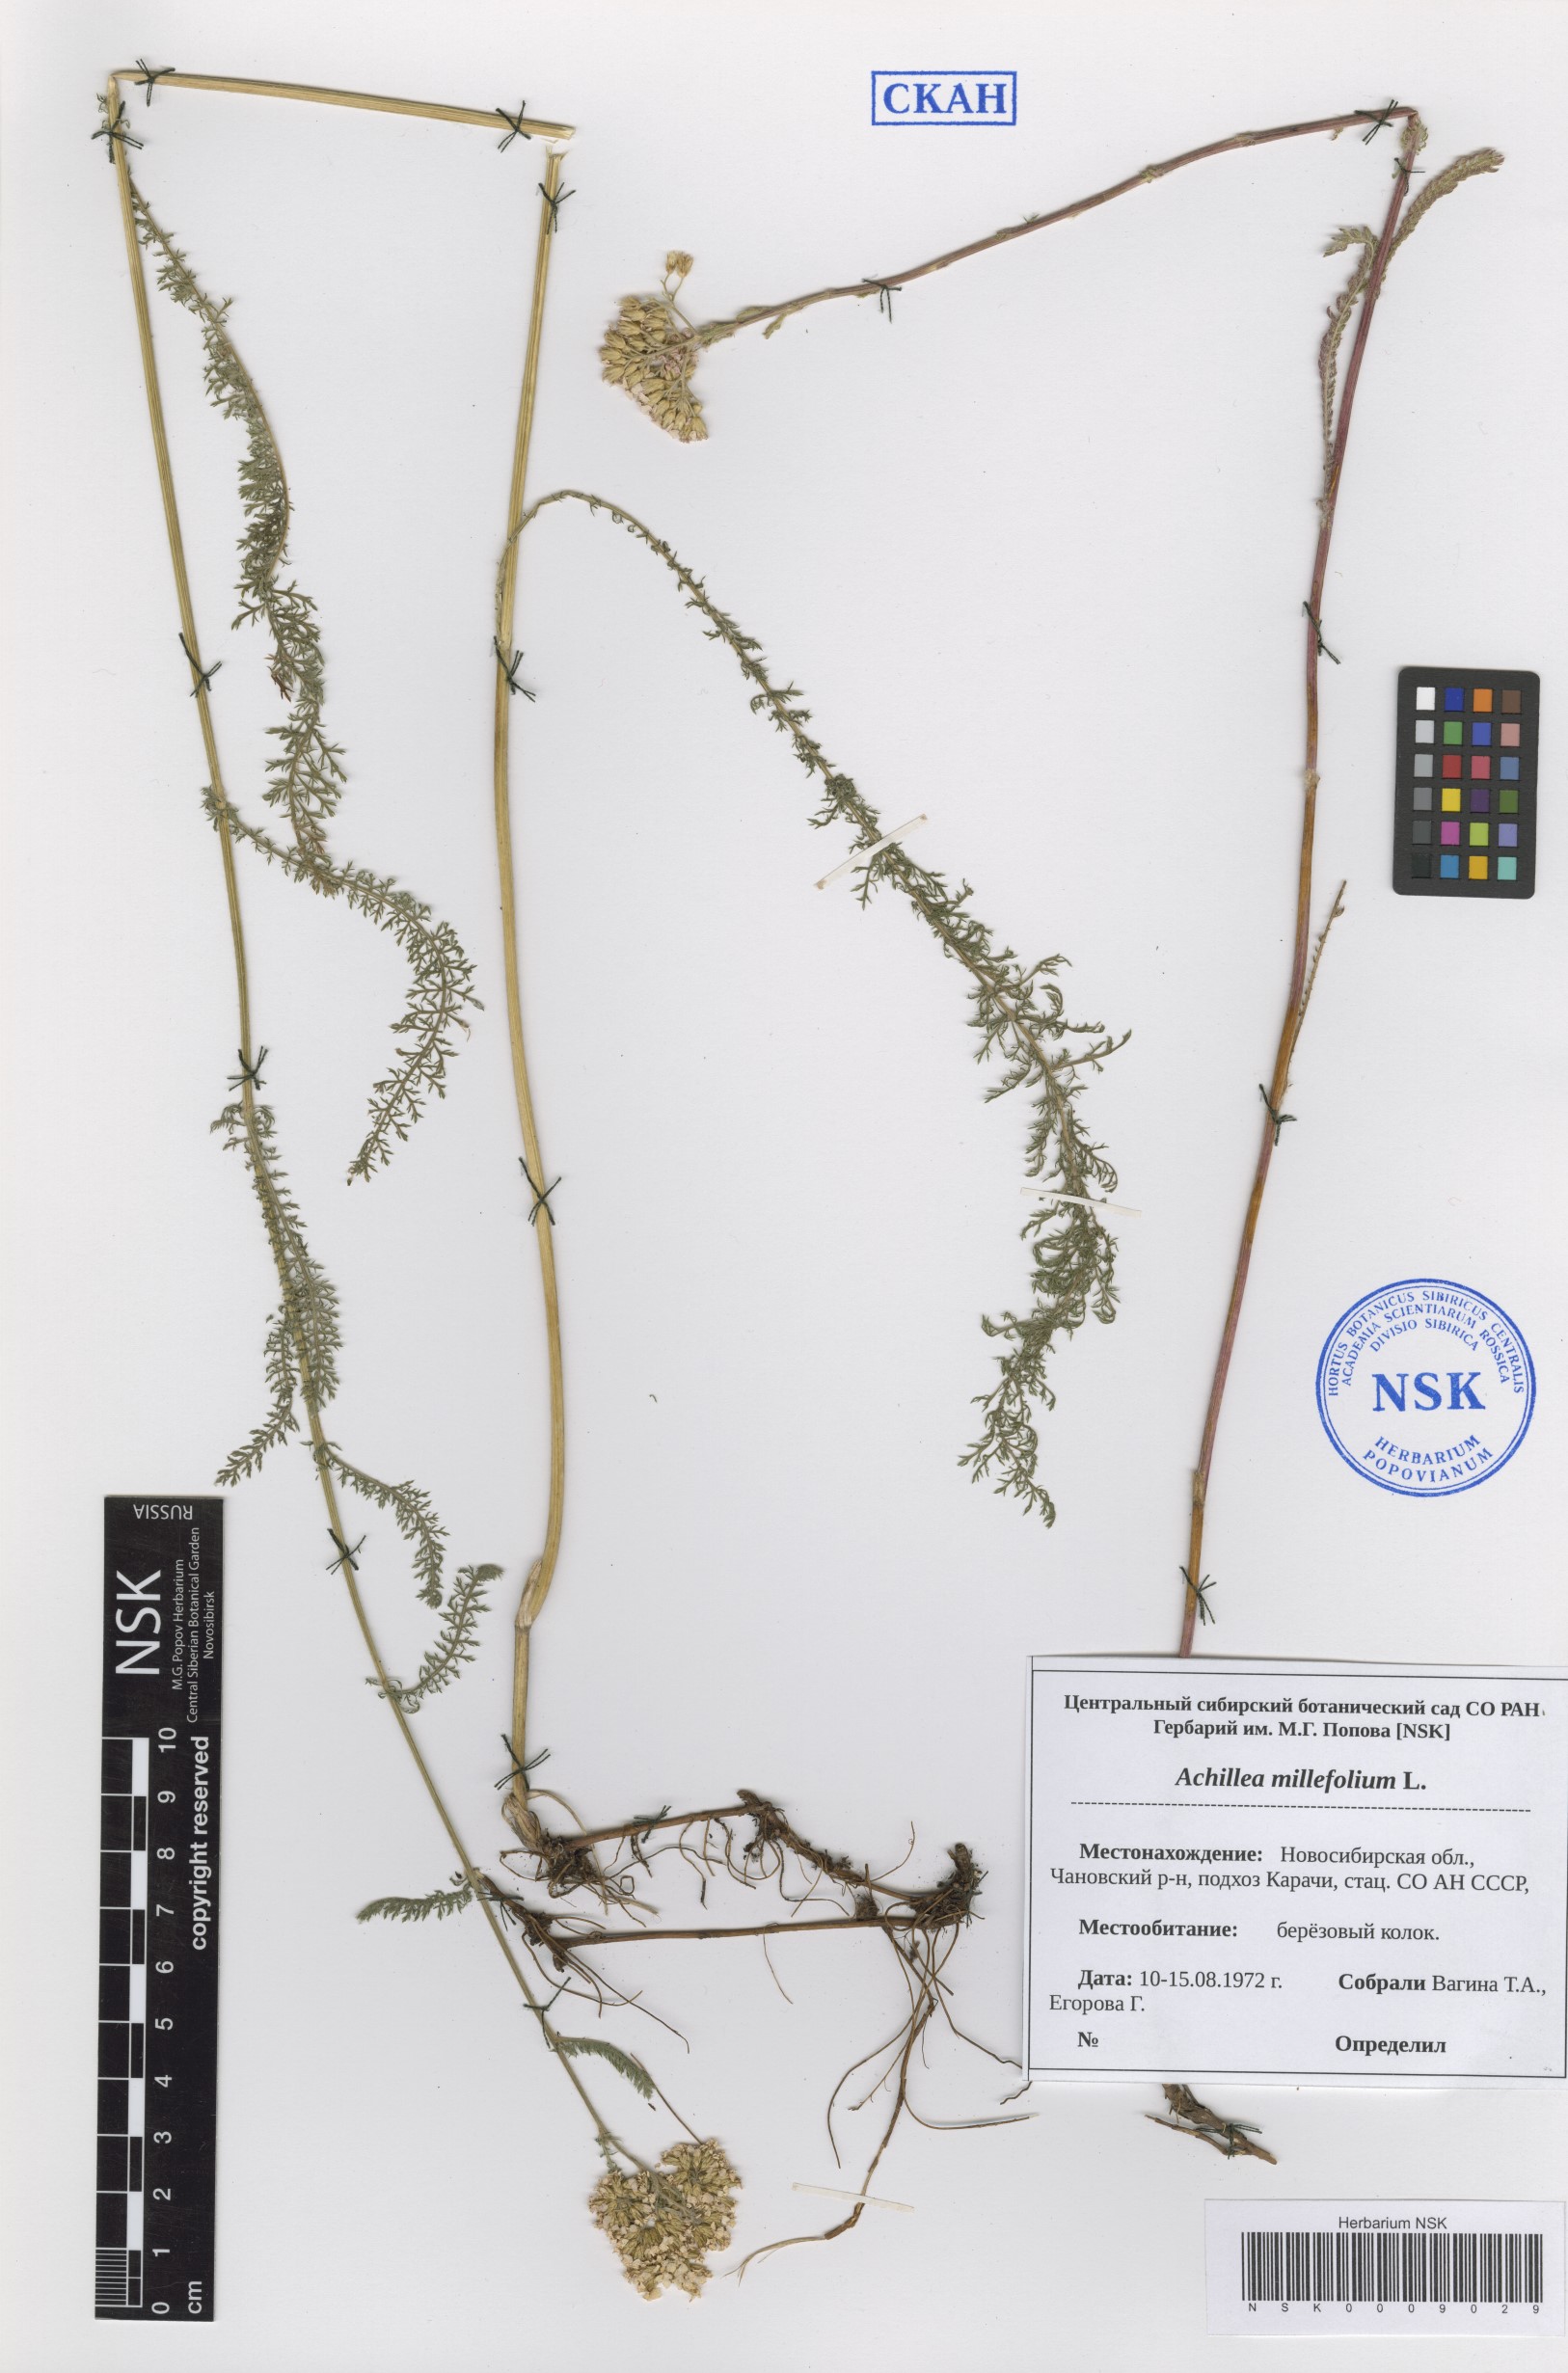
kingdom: Plantae
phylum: Tracheophyta
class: Magnoliopsida
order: Asterales
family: Asteraceae
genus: Achillea
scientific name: Achillea millefolium
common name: Yarrow
